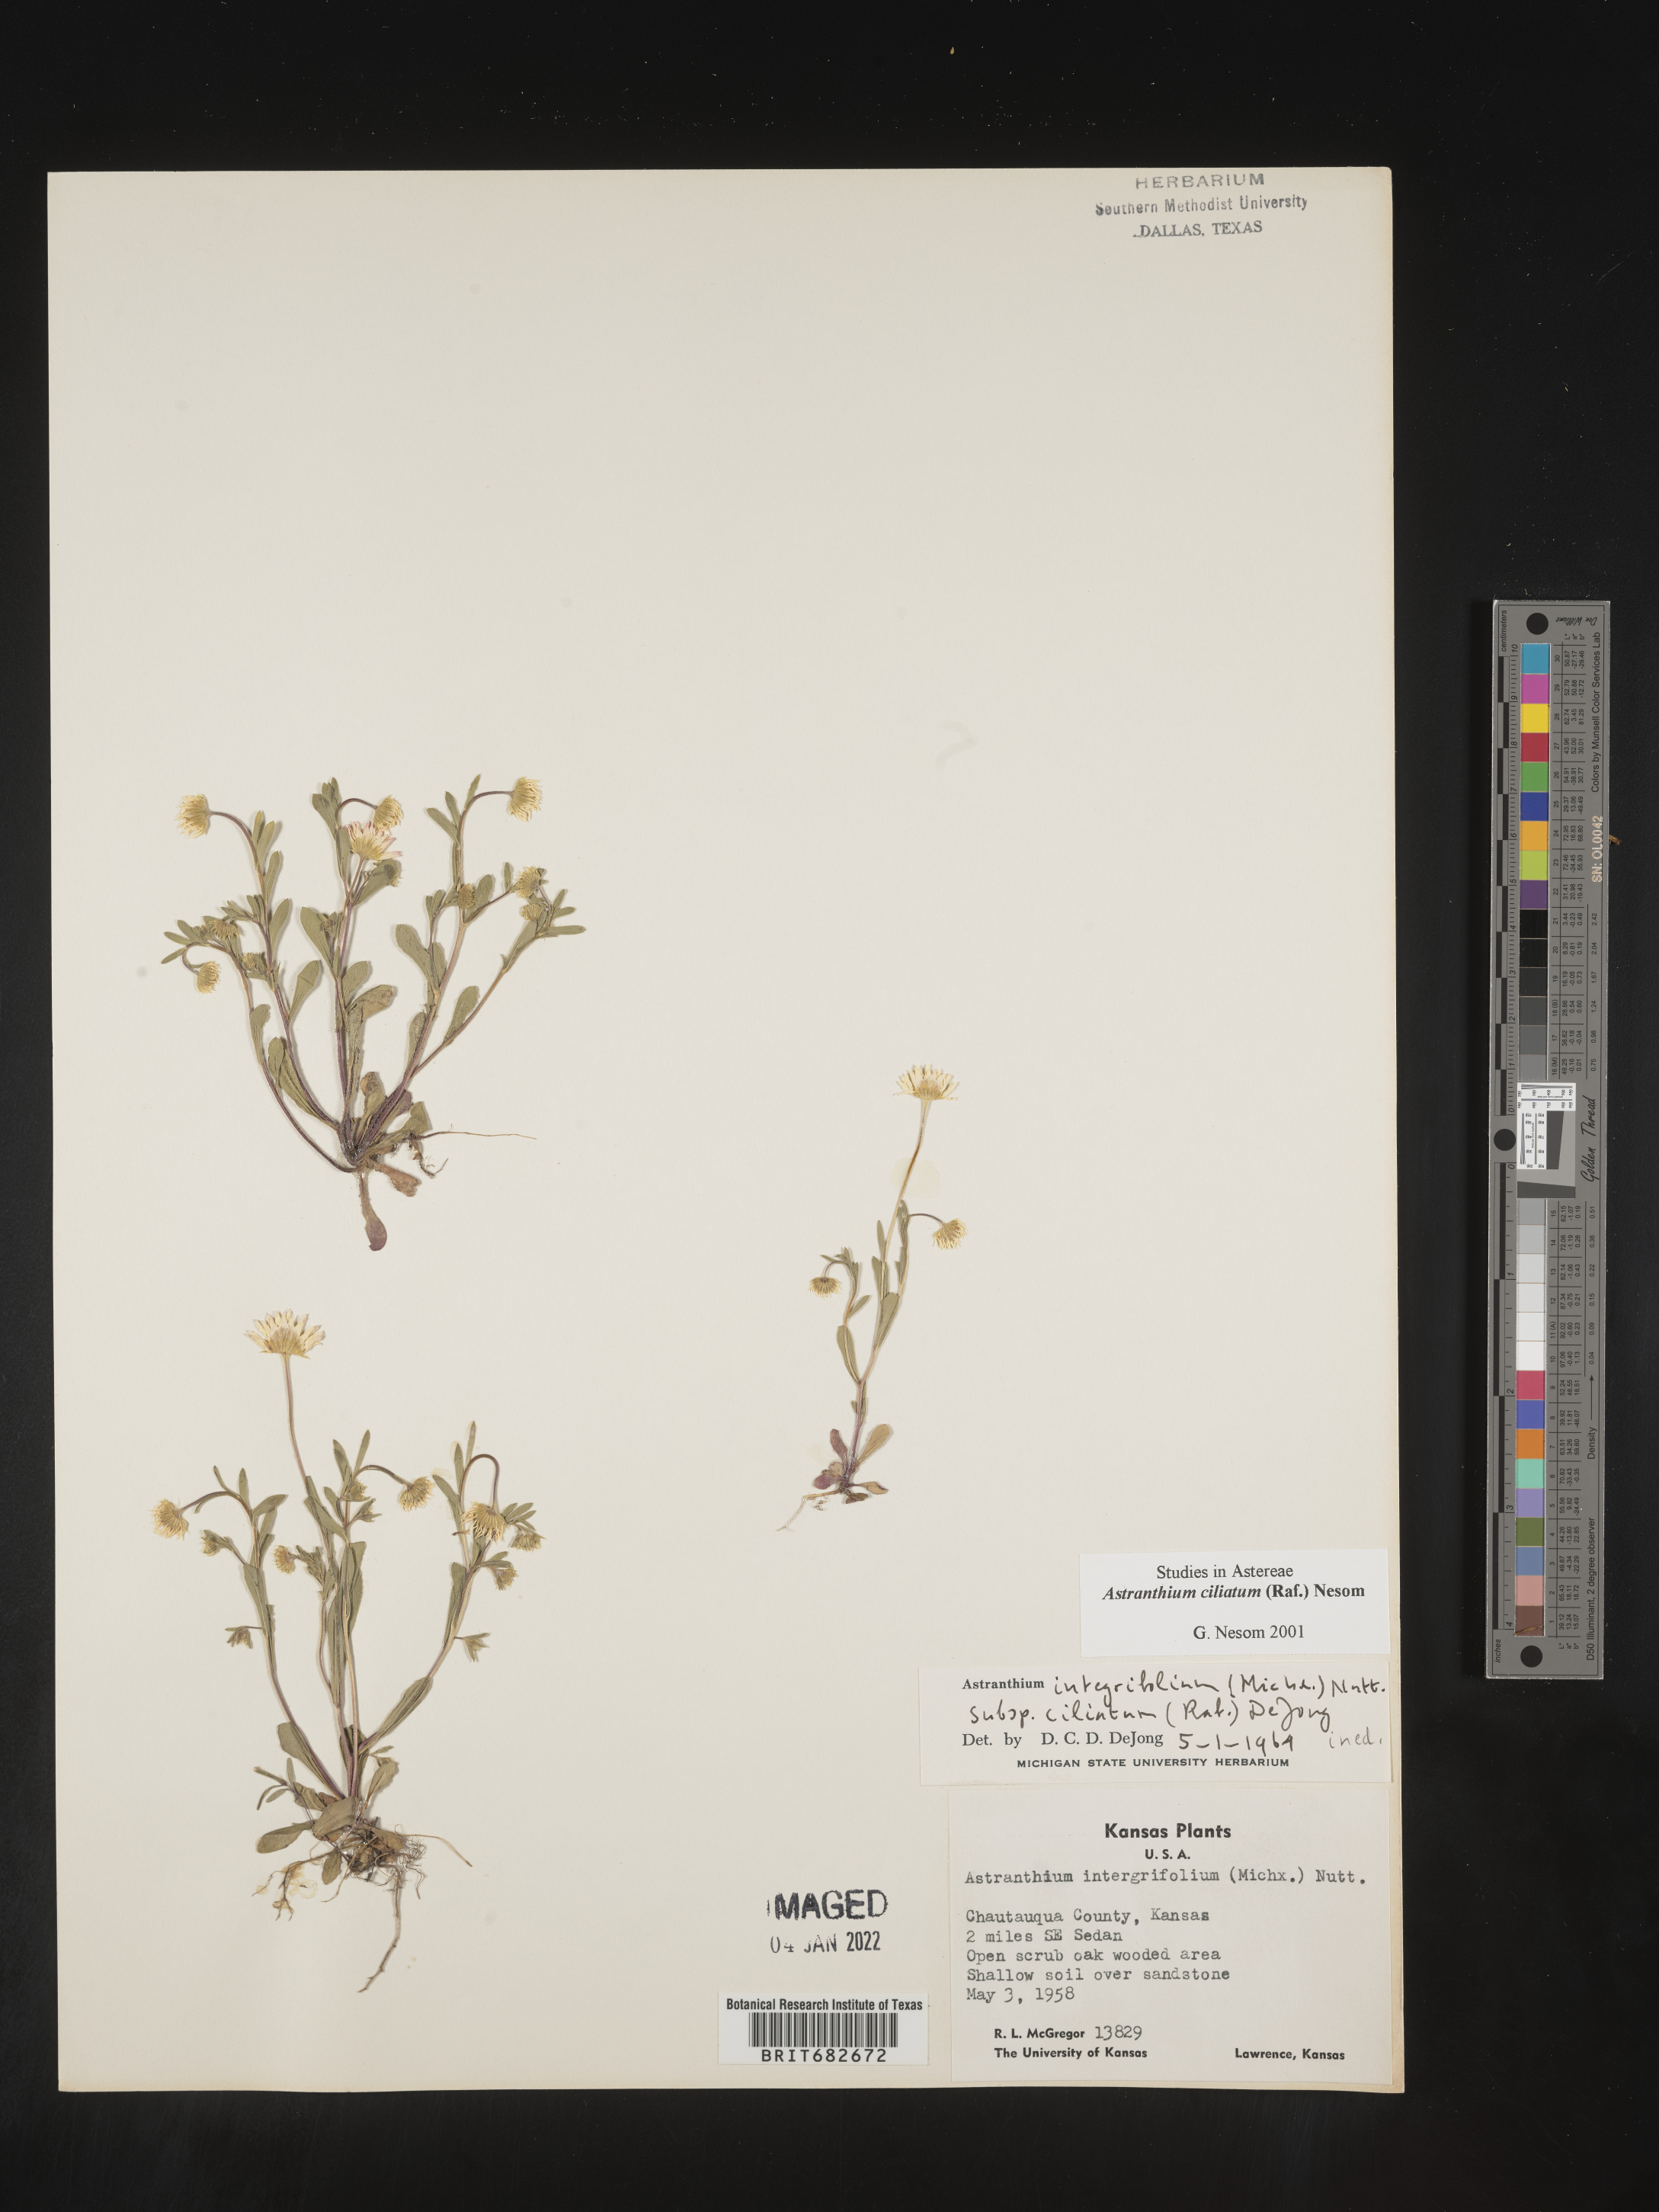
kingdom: Plantae
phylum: Tracheophyta
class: Magnoliopsida
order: Asterales
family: Asteraceae
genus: Astranthium
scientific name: Astranthium ciliatum
